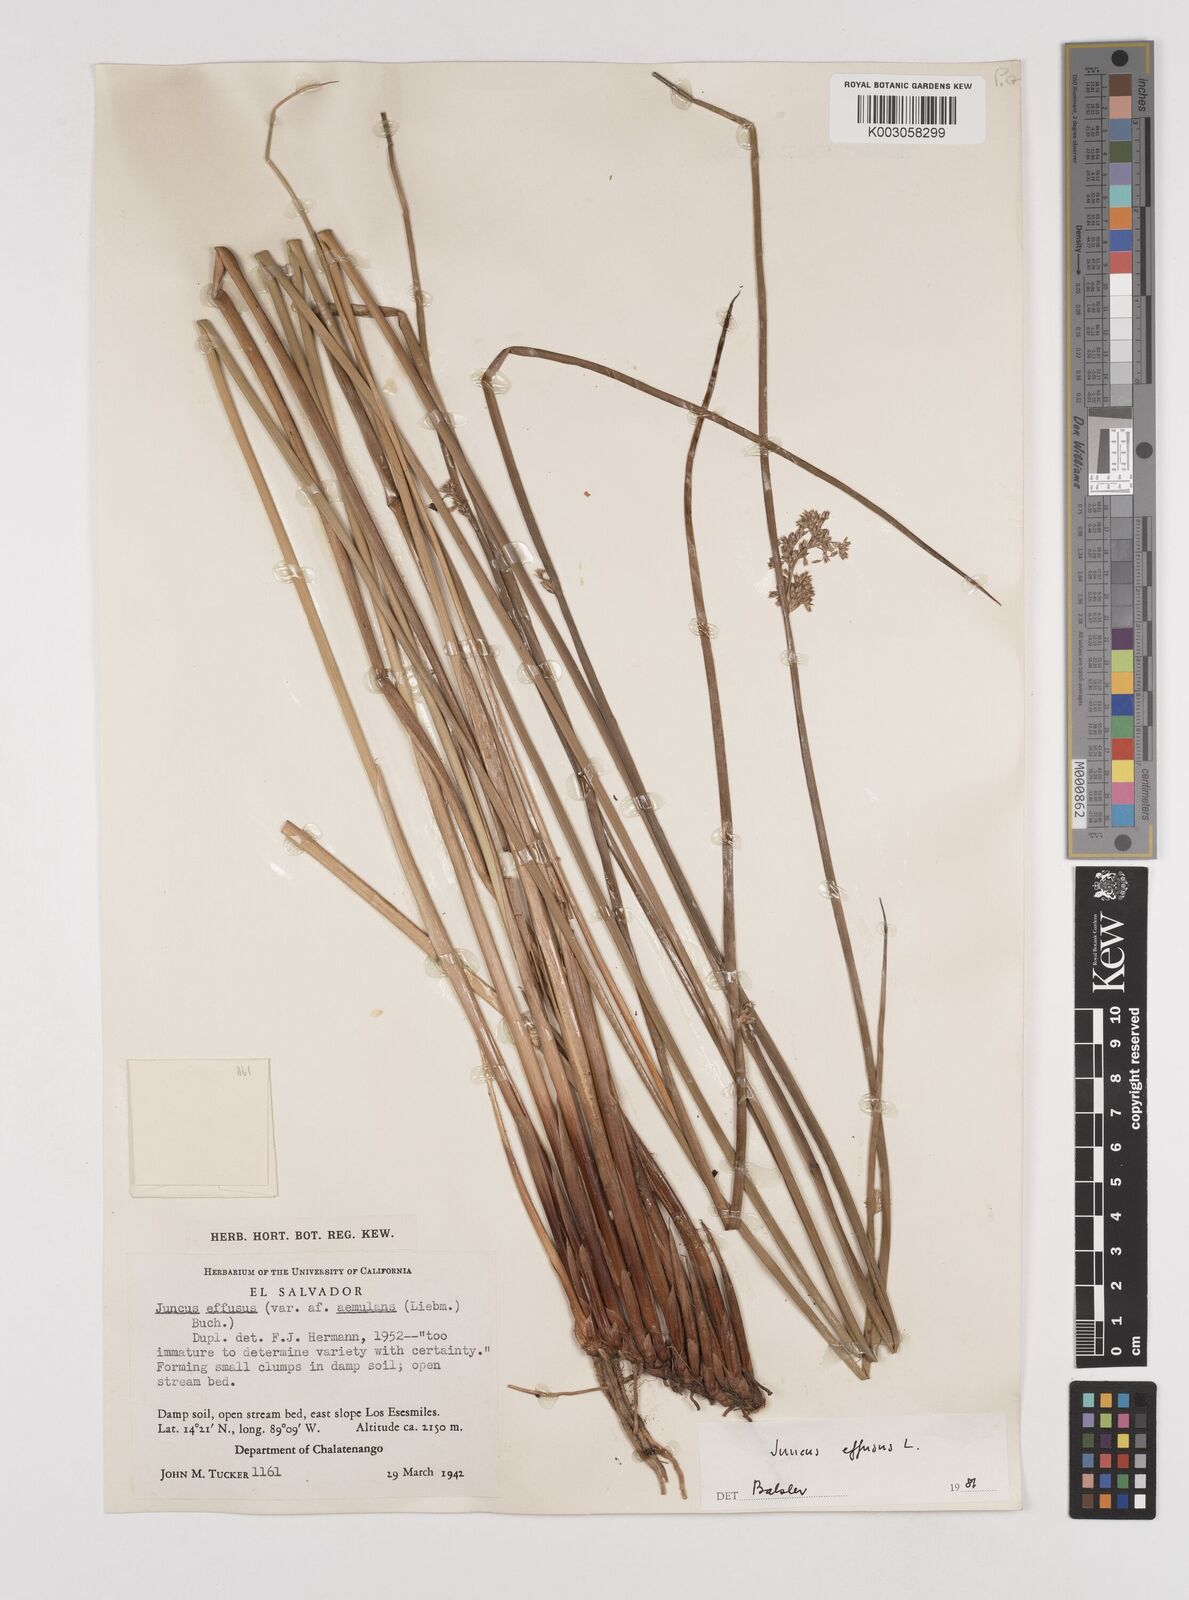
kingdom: Plantae
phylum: Tracheophyta
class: Liliopsida
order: Poales
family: Juncaceae
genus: Juncus
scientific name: Juncus effusus
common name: Soft rush
